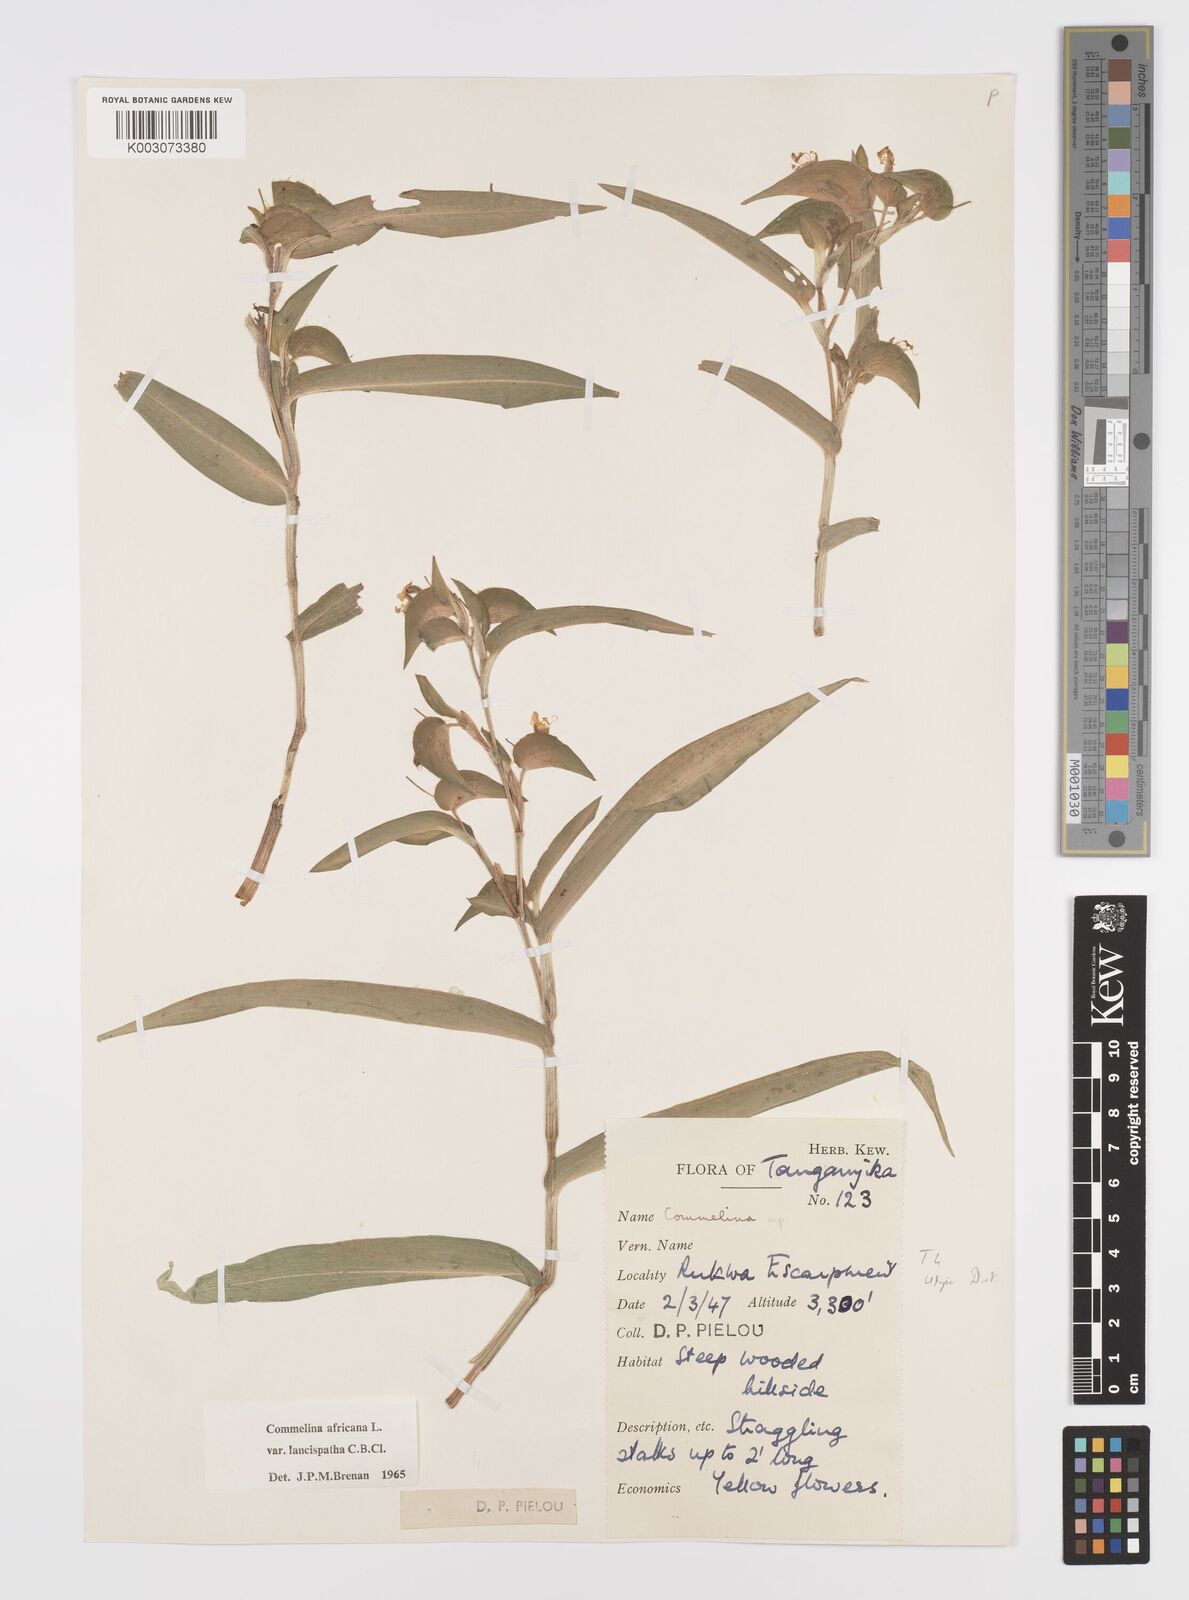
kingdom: Plantae
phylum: Tracheophyta
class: Liliopsida
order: Commelinales
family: Commelinaceae
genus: Commelina
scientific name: Commelina africana
